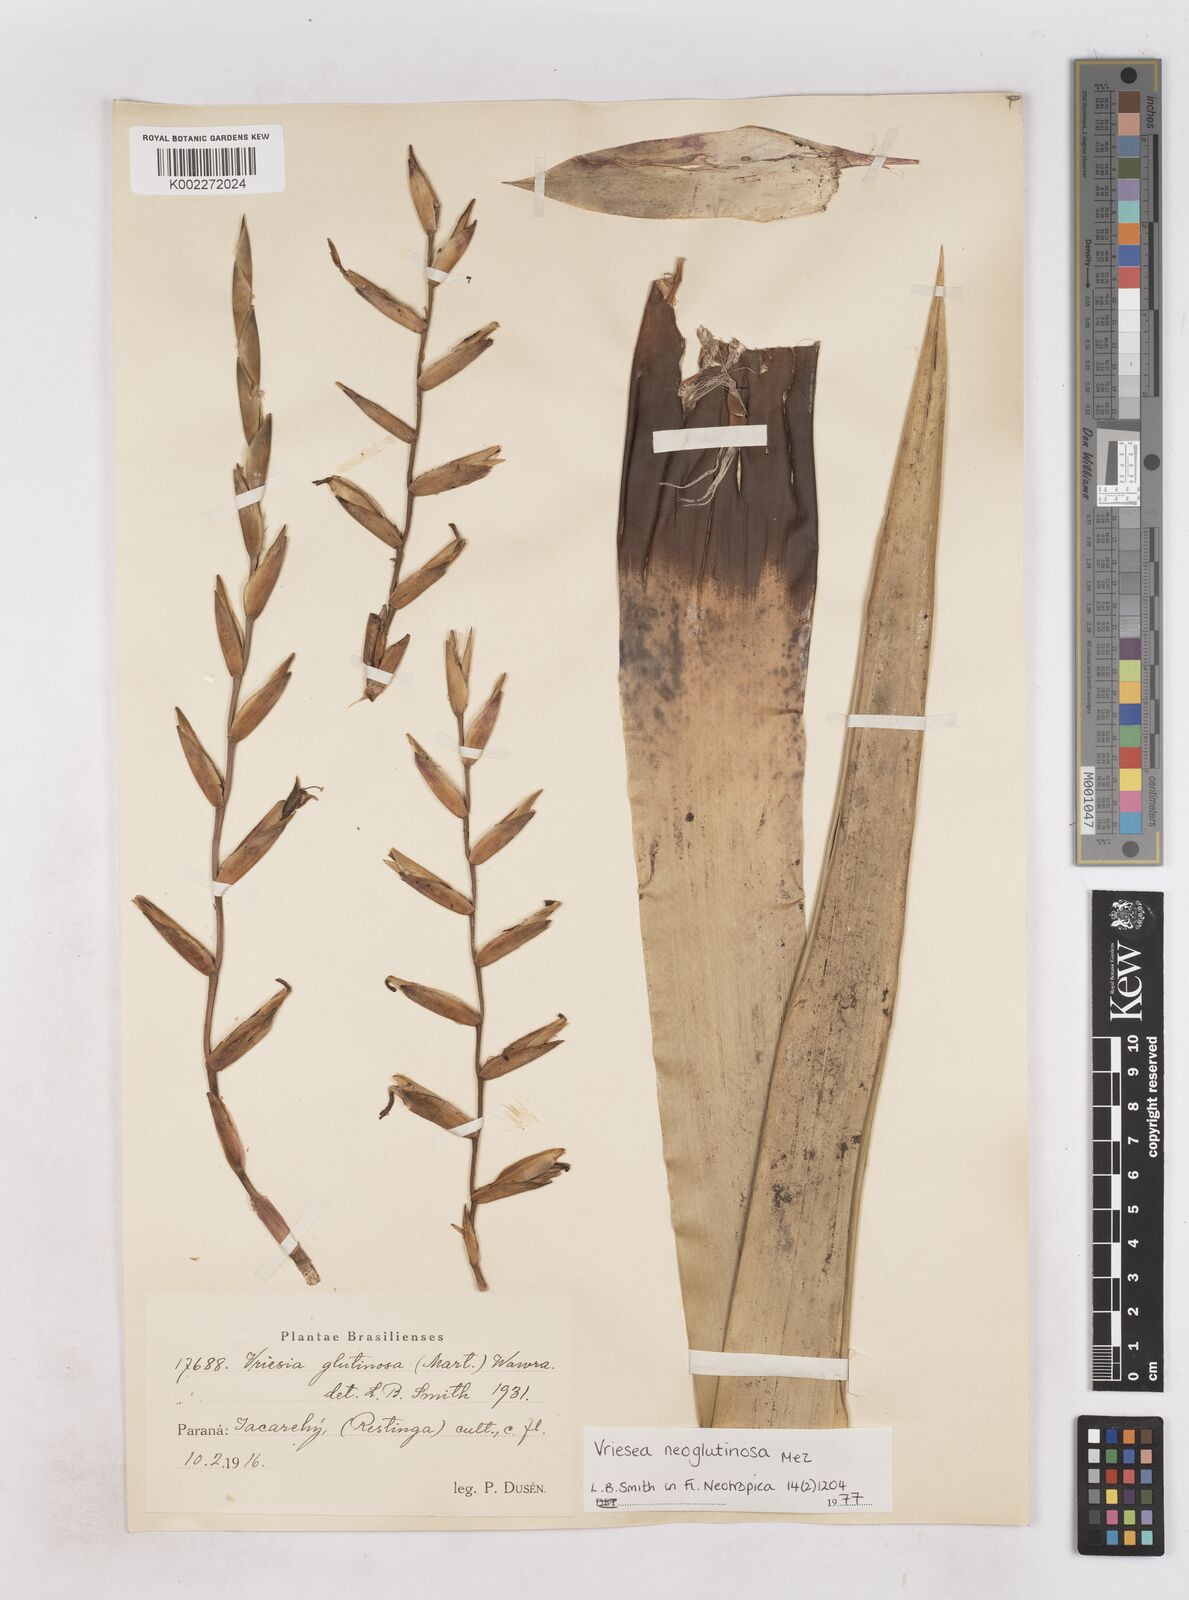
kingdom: Plantae
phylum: Tracheophyta
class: Liliopsida
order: Poales
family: Bromeliaceae
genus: Vriesea
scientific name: Vriesea neoglutinosa
